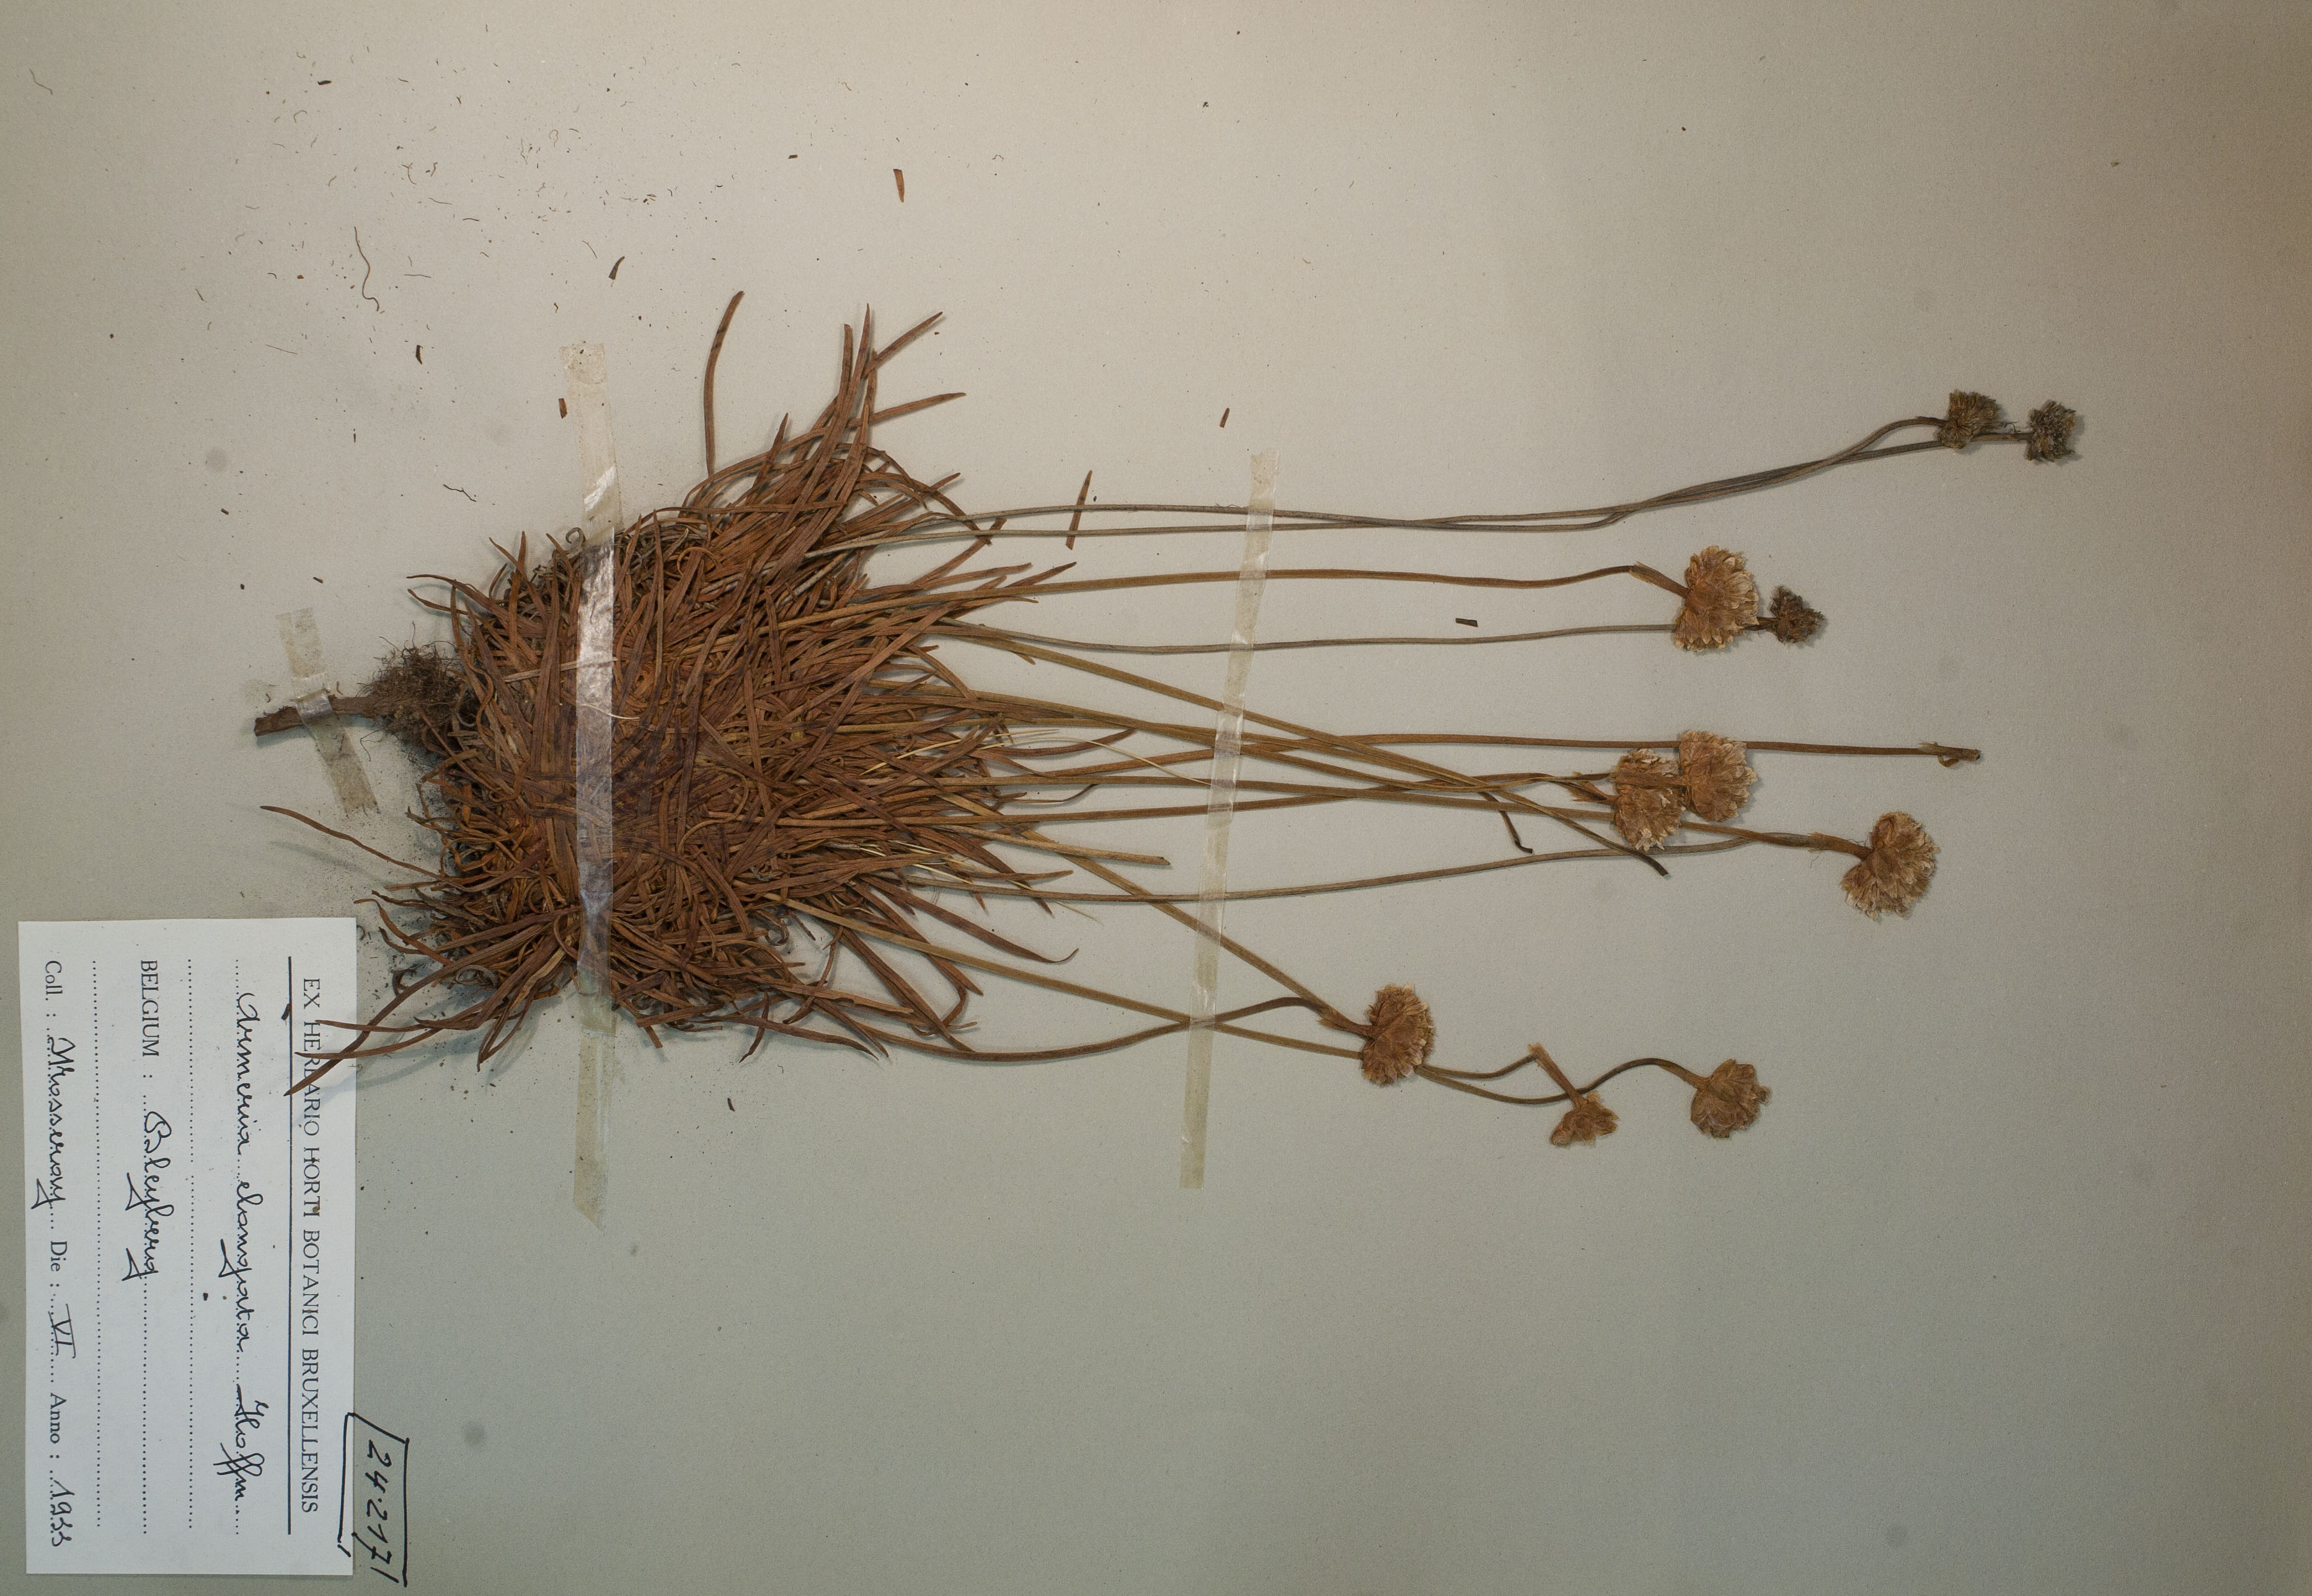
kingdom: Plantae
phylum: Tracheophyta
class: Magnoliopsida
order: Caryophyllales
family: Plumbaginaceae
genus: Armeria
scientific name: Armeria maritima
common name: Thrift
